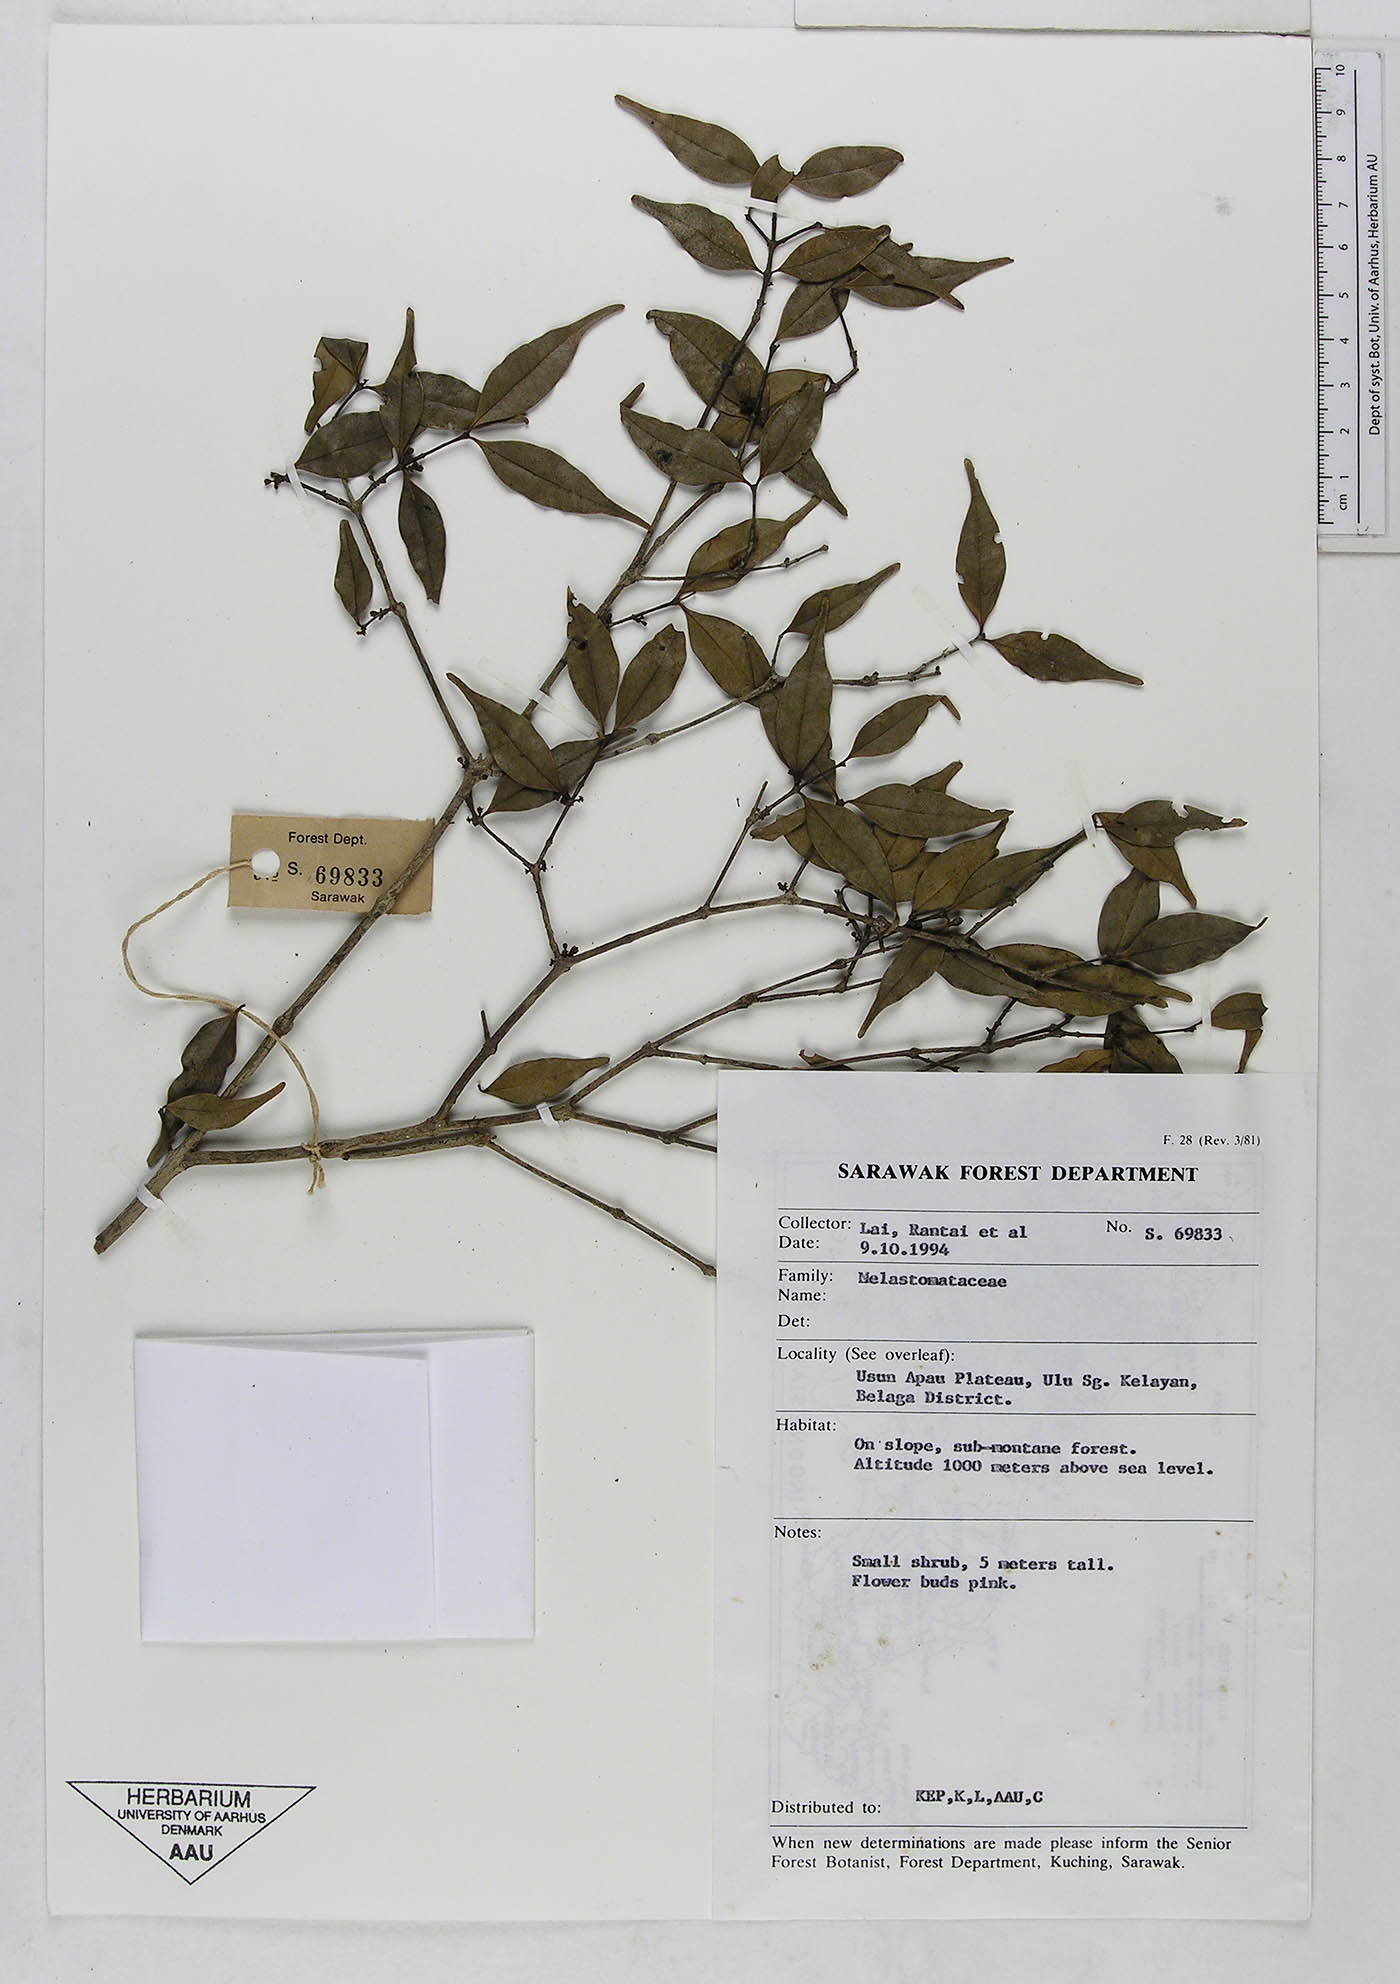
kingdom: Plantae
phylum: Tracheophyta
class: Magnoliopsida
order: Myrtales
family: Melastomataceae
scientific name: Melastomataceae
